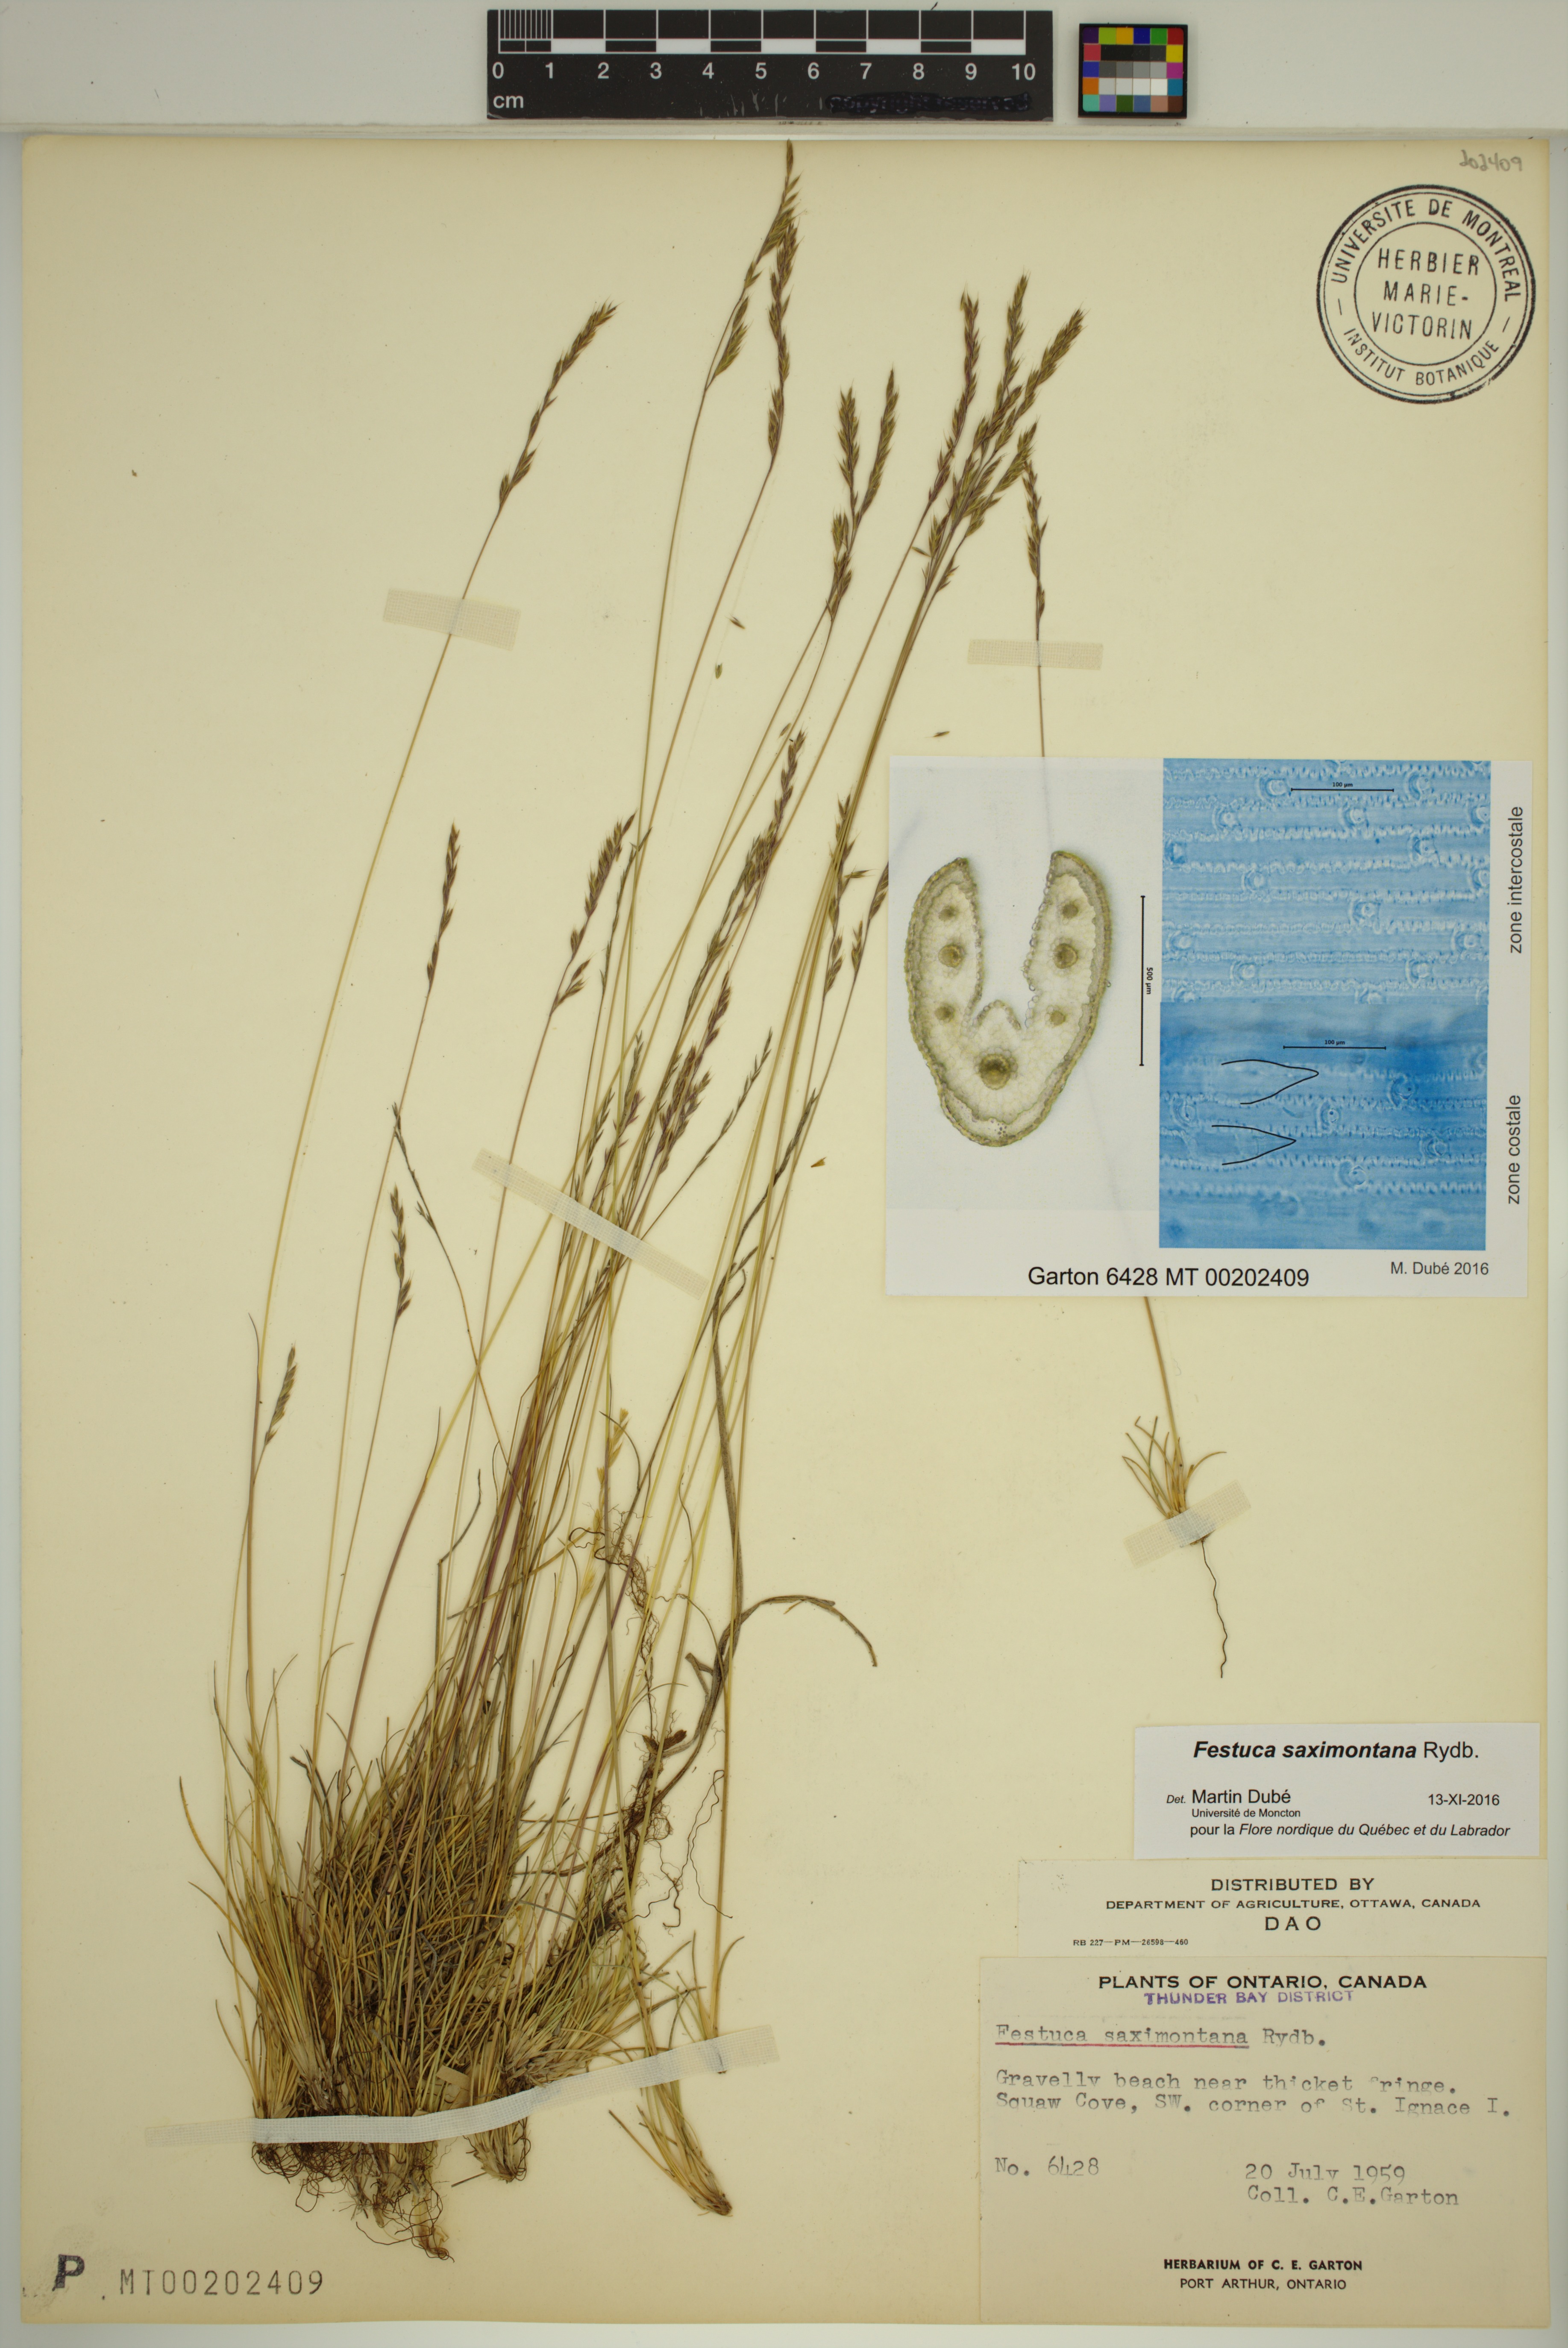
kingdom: Plantae
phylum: Tracheophyta
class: Liliopsida
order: Poales
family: Poaceae
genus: Festuca
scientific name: Festuca saximontana
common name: Mountain fescue
